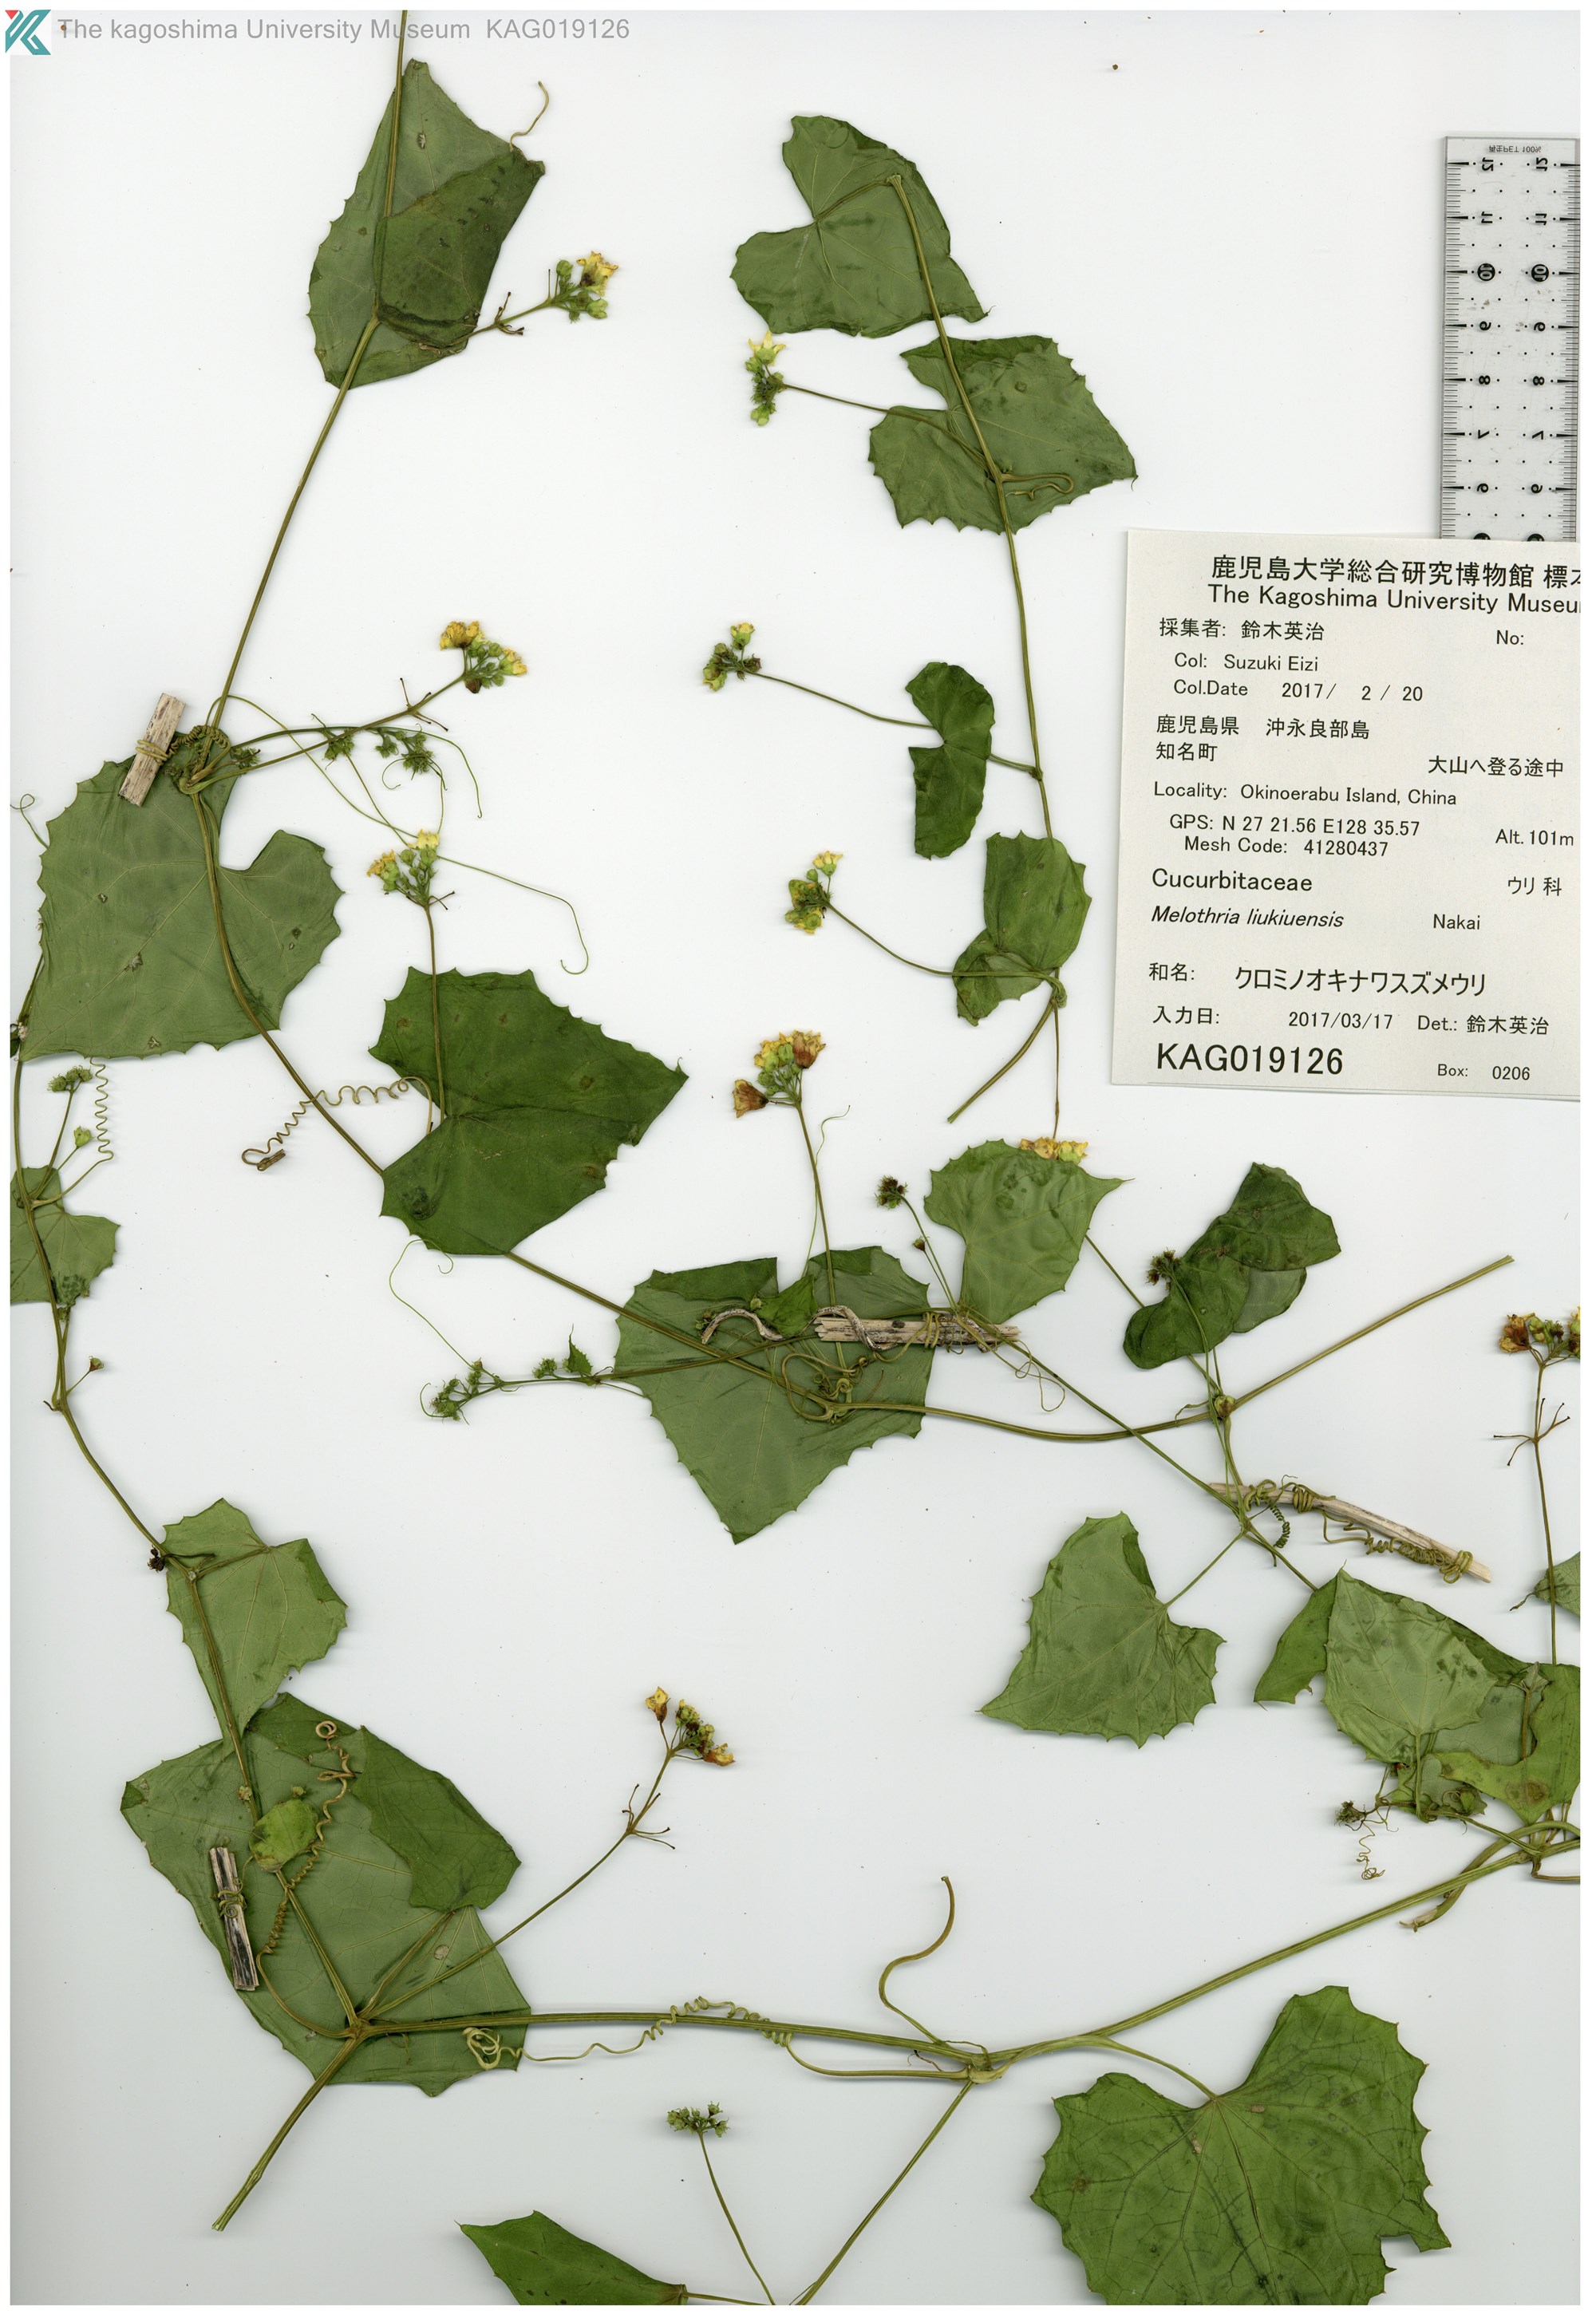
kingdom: Plantae
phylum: Tracheophyta
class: Magnoliopsida
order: Cucurbitales
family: Cucurbitaceae
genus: Zehneria
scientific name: Zehneria guamensis
